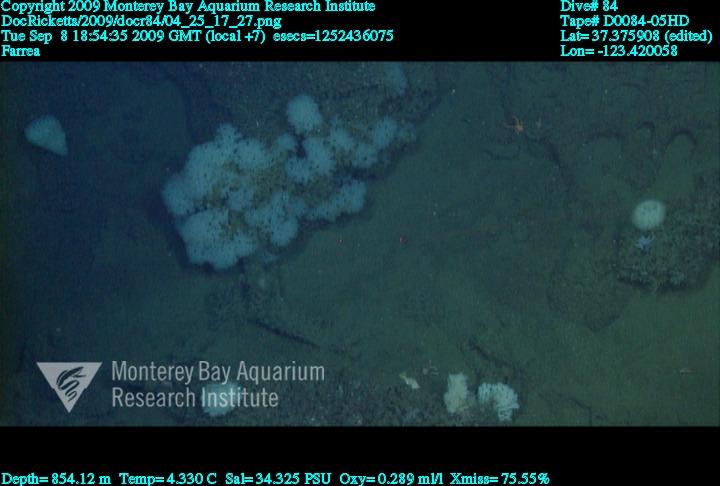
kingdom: Animalia
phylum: Porifera
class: Hexactinellida
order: Sceptrulophora
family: Farreidae
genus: Farrea
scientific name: Farrea
